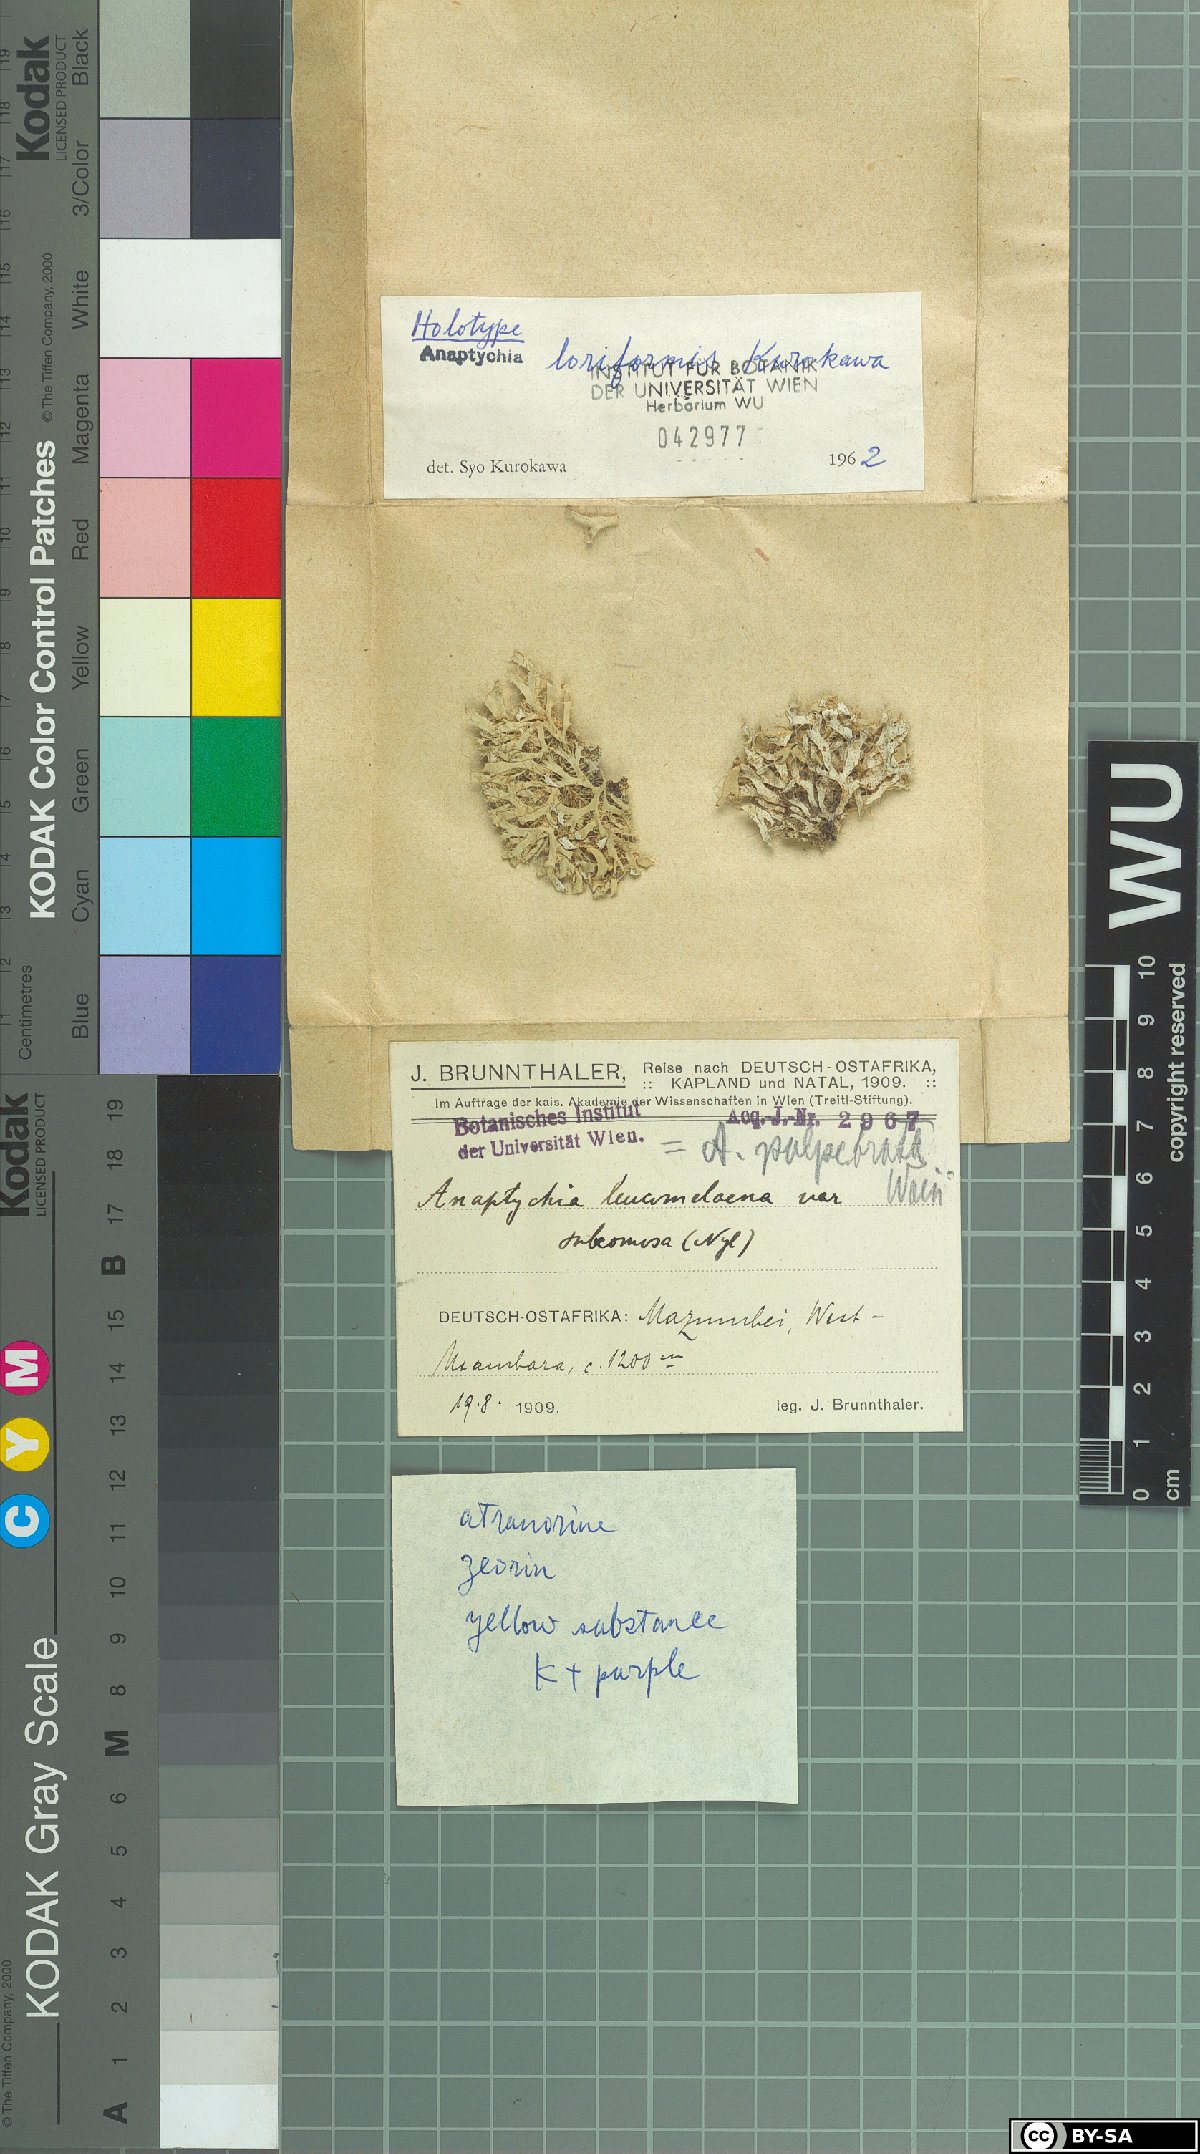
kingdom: Fungi
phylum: Ascomycota
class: Lecanoromycetes
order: Caliciales
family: Physciaceae
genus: Heterodermia
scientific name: Heterodermia loriformis
